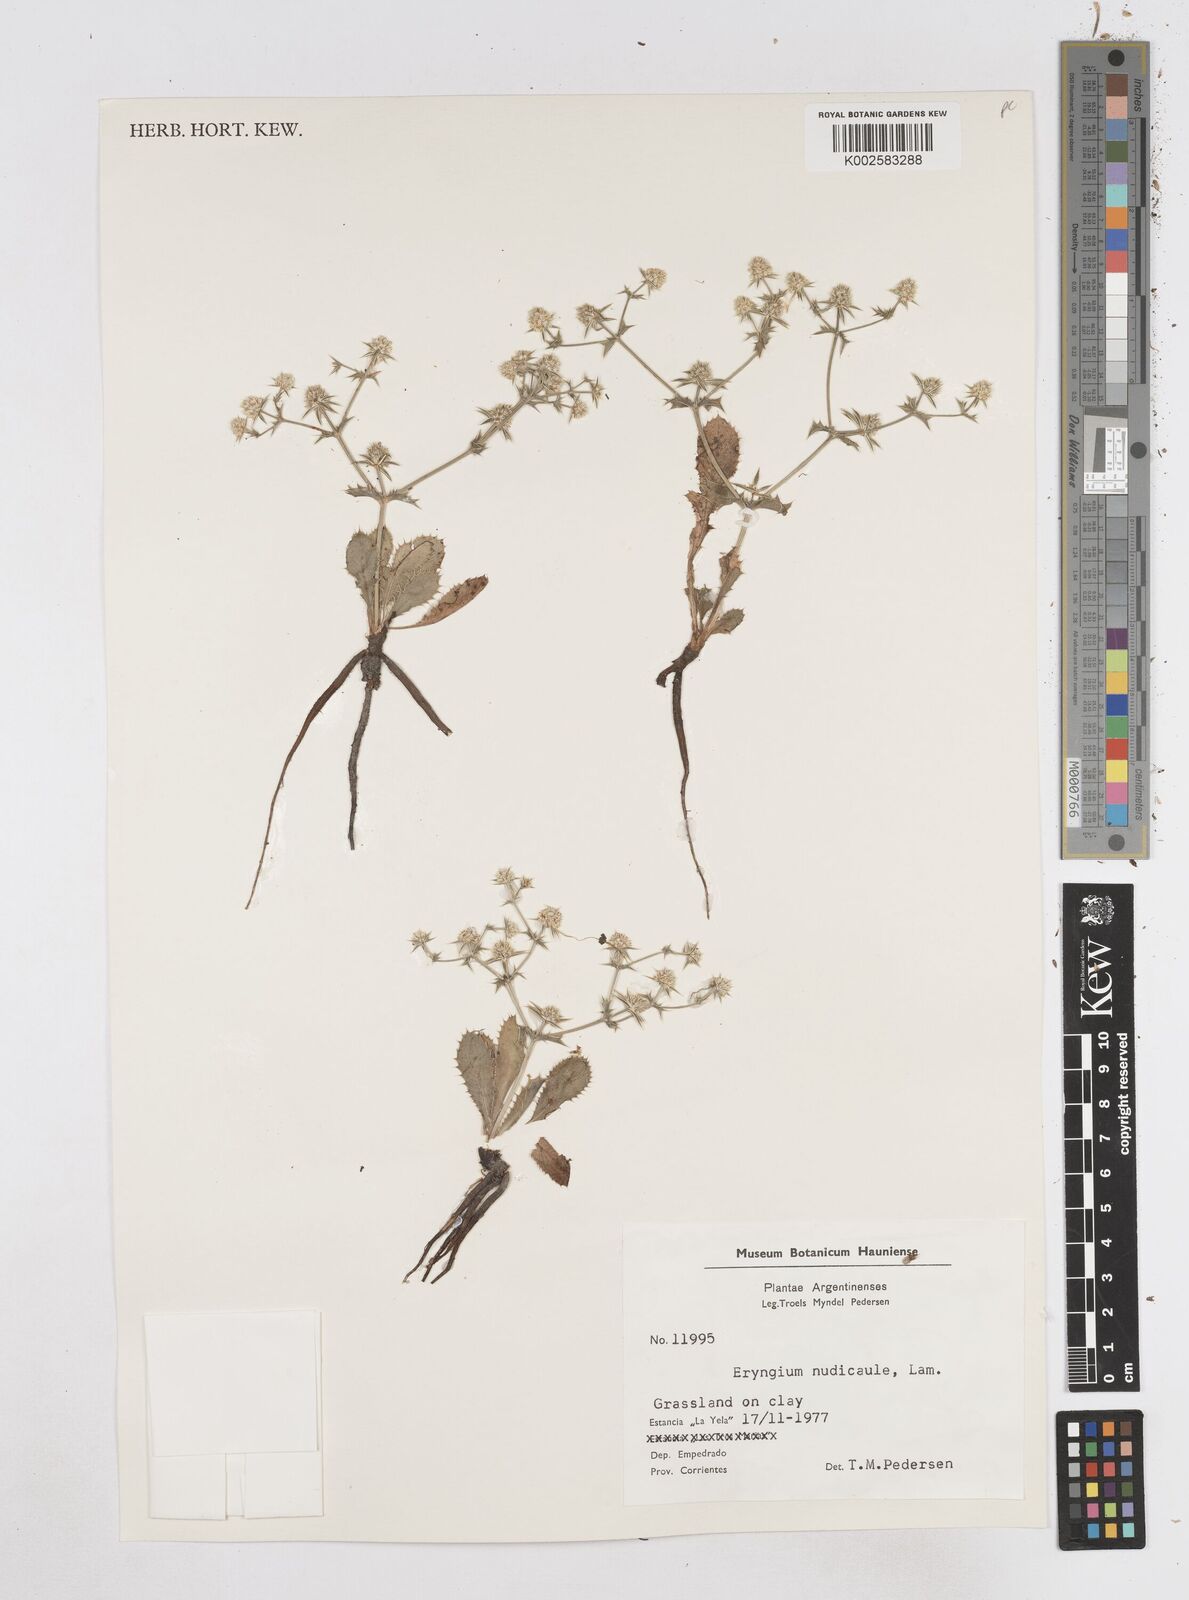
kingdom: Plantae
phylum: Tracheophyta
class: Magnoliopsida
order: Apiales
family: Apiaceae
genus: Eryngium
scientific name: Eryngium nudicaule
